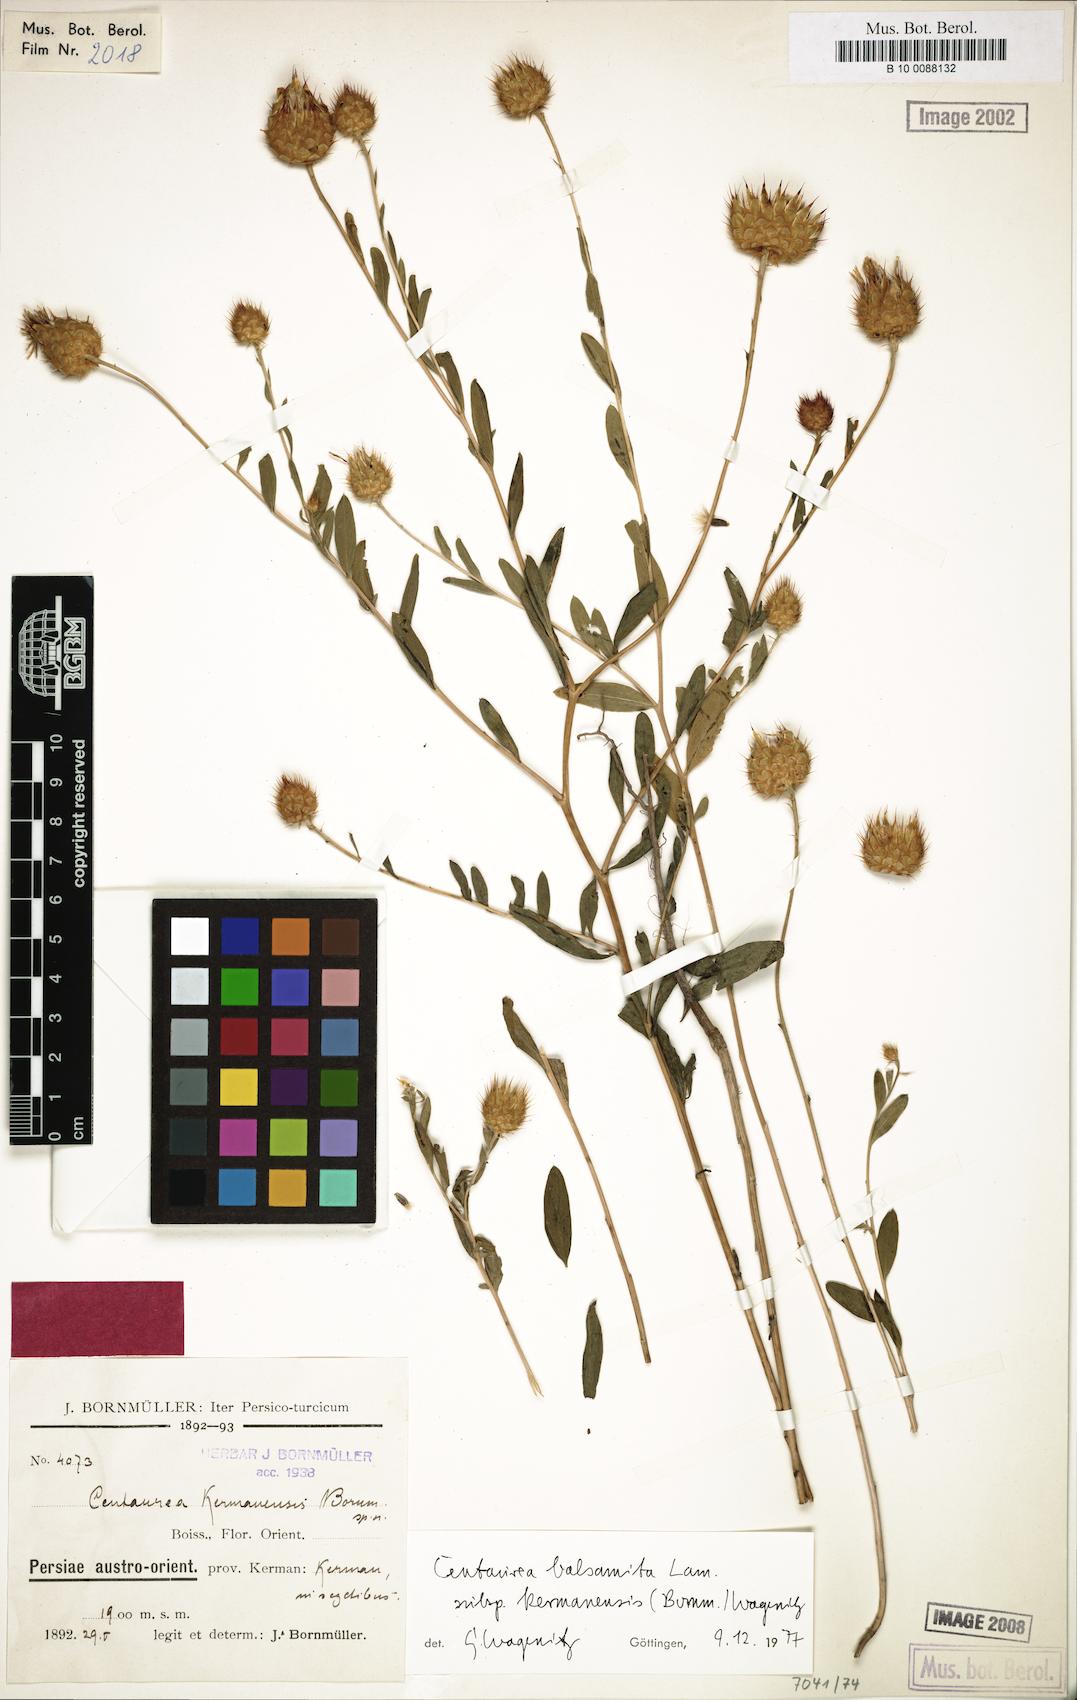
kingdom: Plantae
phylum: Tracheophyta
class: Magnoliopsida
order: Asterales
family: Asteraceae
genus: Stizolophus
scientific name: Stizolophus kermanensis
